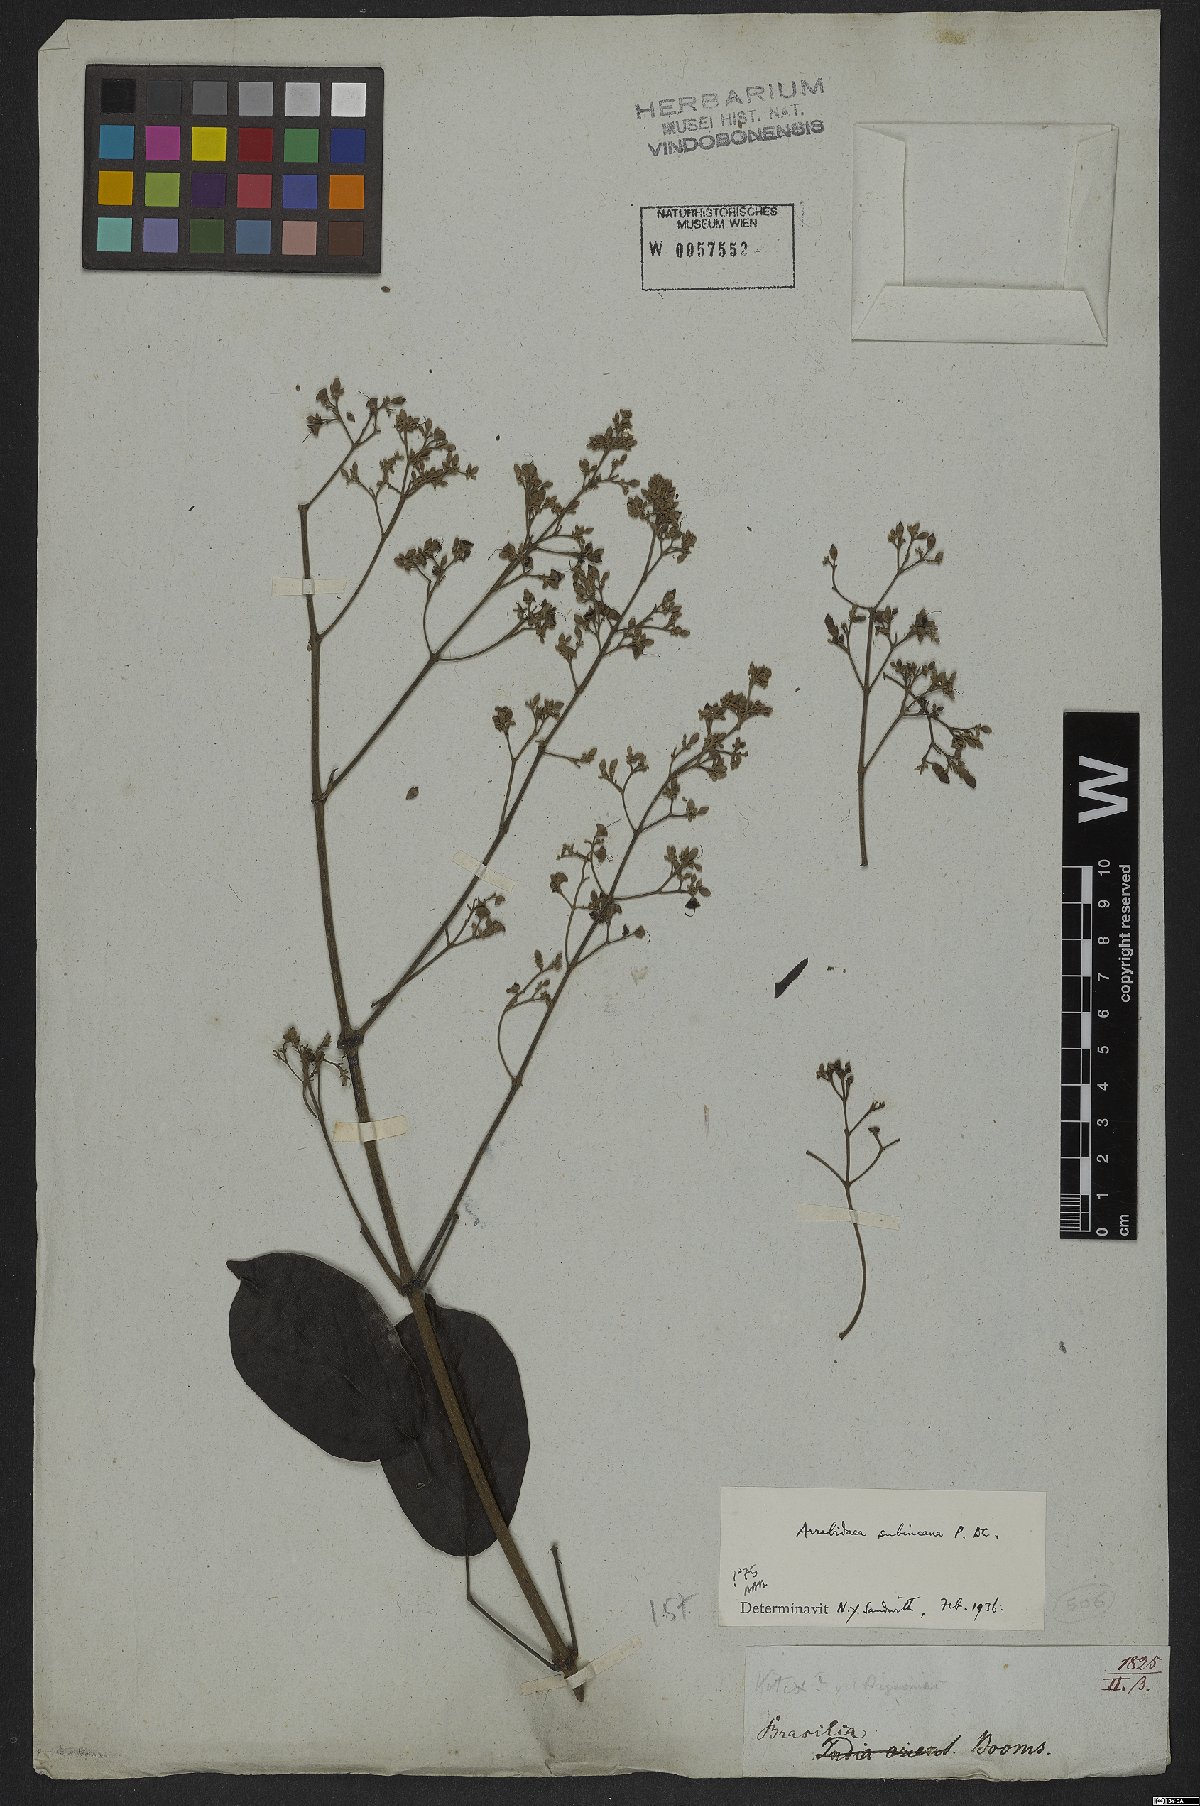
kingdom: Plantae
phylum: Tracheophyta
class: Magnoliopsida
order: Lamiales
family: Bignoniaceae
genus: Fridericia
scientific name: Fridericia subincana
